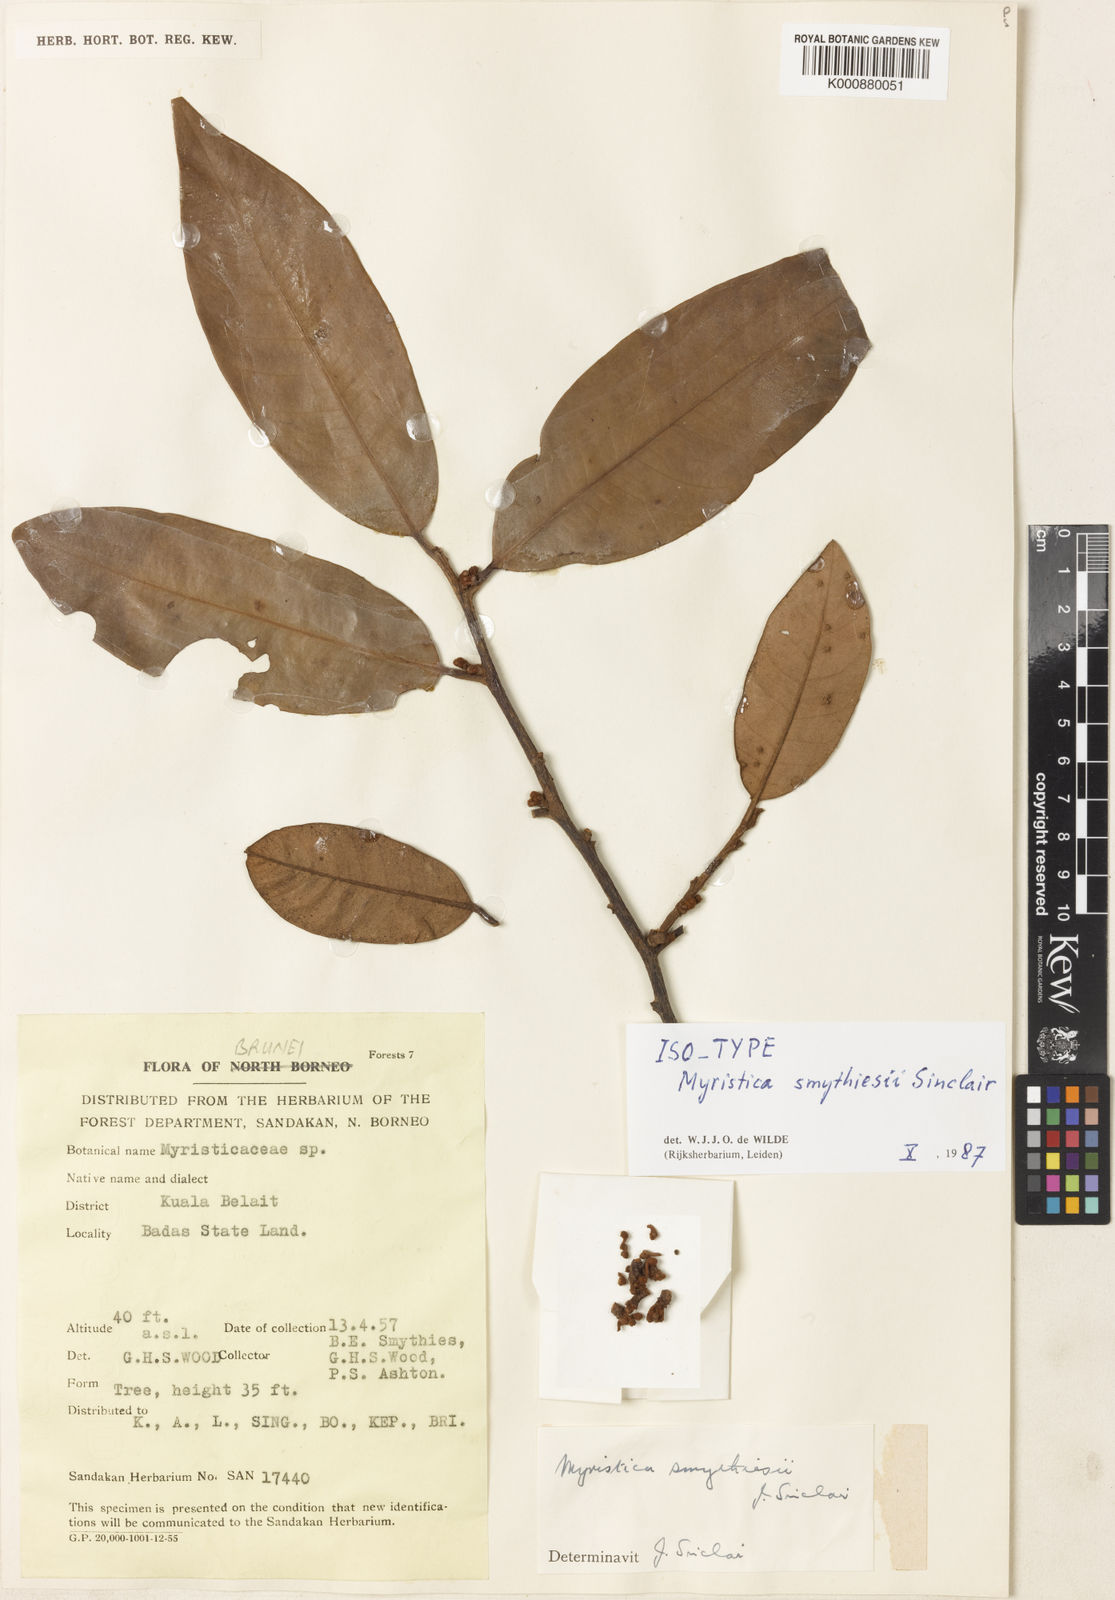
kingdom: Plantae
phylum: Tracheophyta
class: Magnoliopsida
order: Magnoliales
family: Myristicaceae
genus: Myristica
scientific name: Myristica smythiesii
